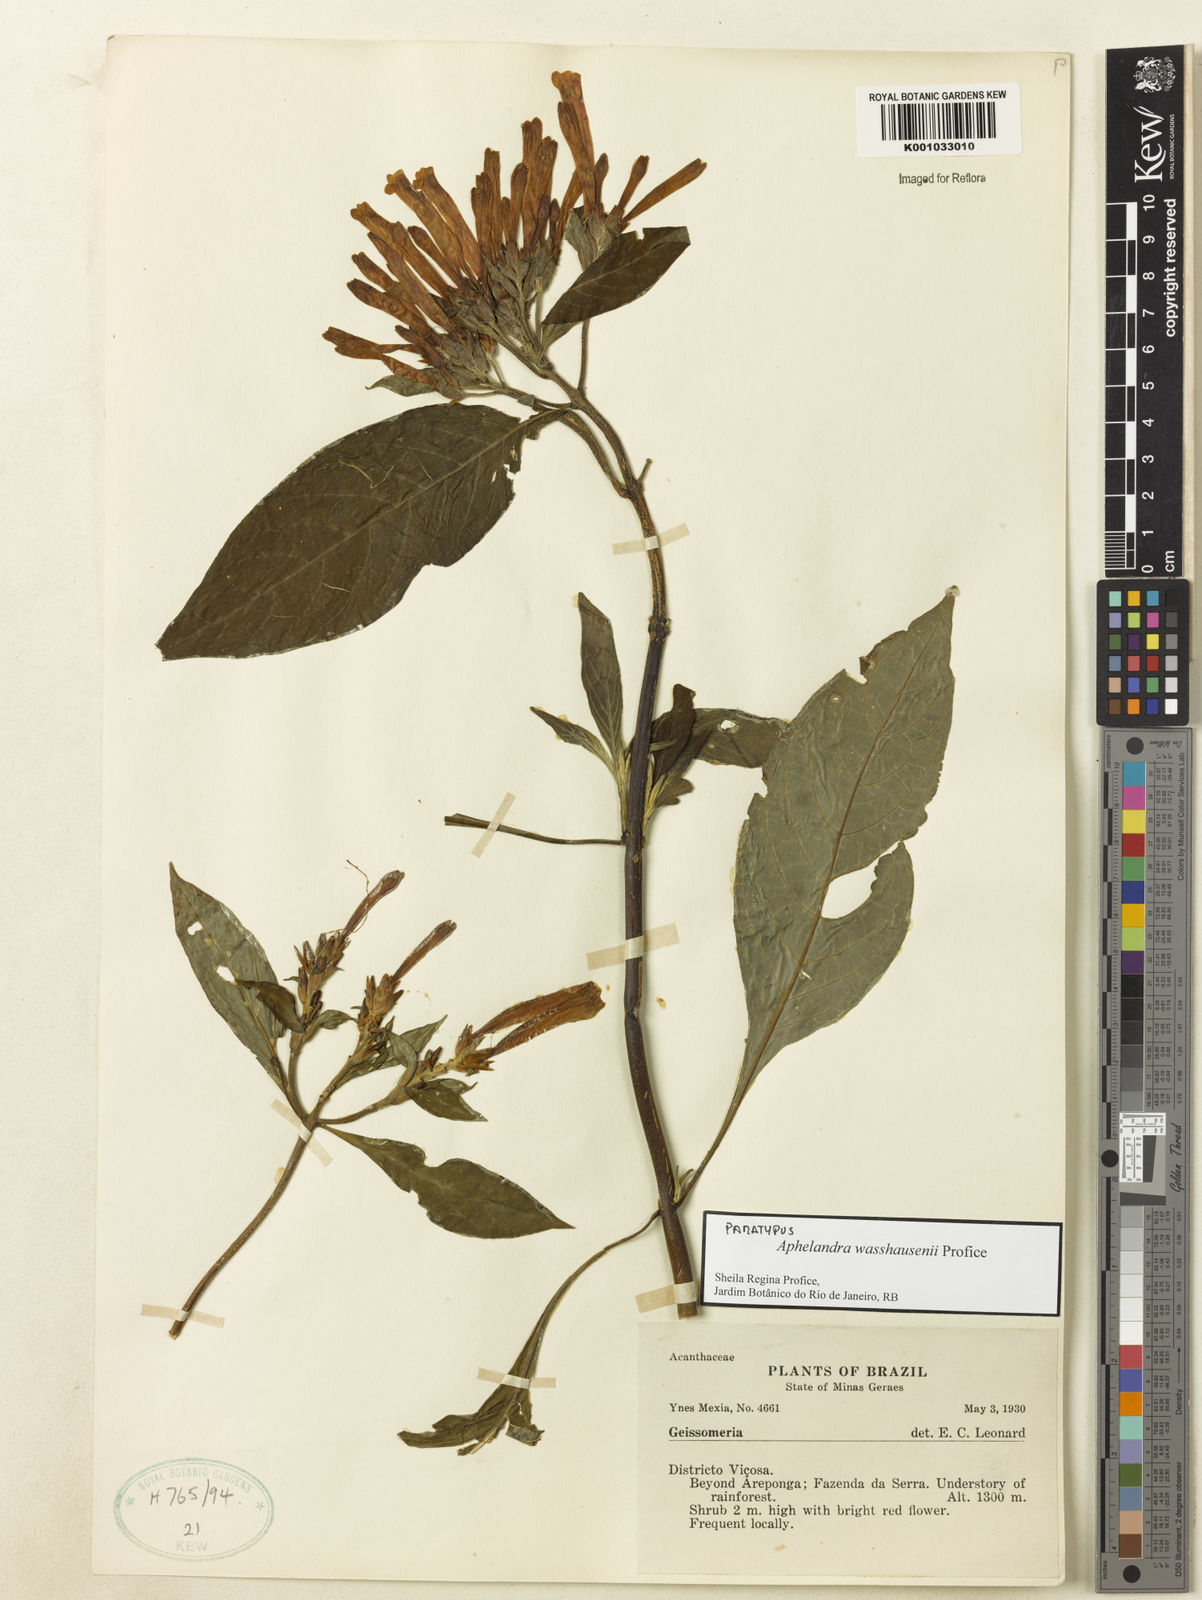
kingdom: Plantae
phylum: Tracheophyta
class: Magnoliopsida
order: Lamiales
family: Acanthaceae
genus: Aphelandra
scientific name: Aphelandra wasshausenii
